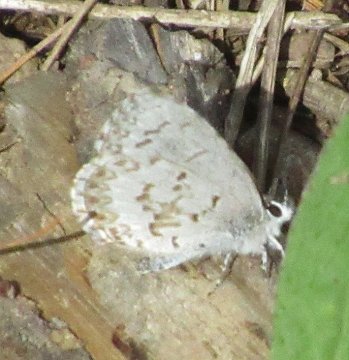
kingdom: Animalia
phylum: Arthropoda
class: Insecta
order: Lepidoptera
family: Lycaenidae
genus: Celastrina
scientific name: Celastrina lucia
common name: Northern Spring Azure
